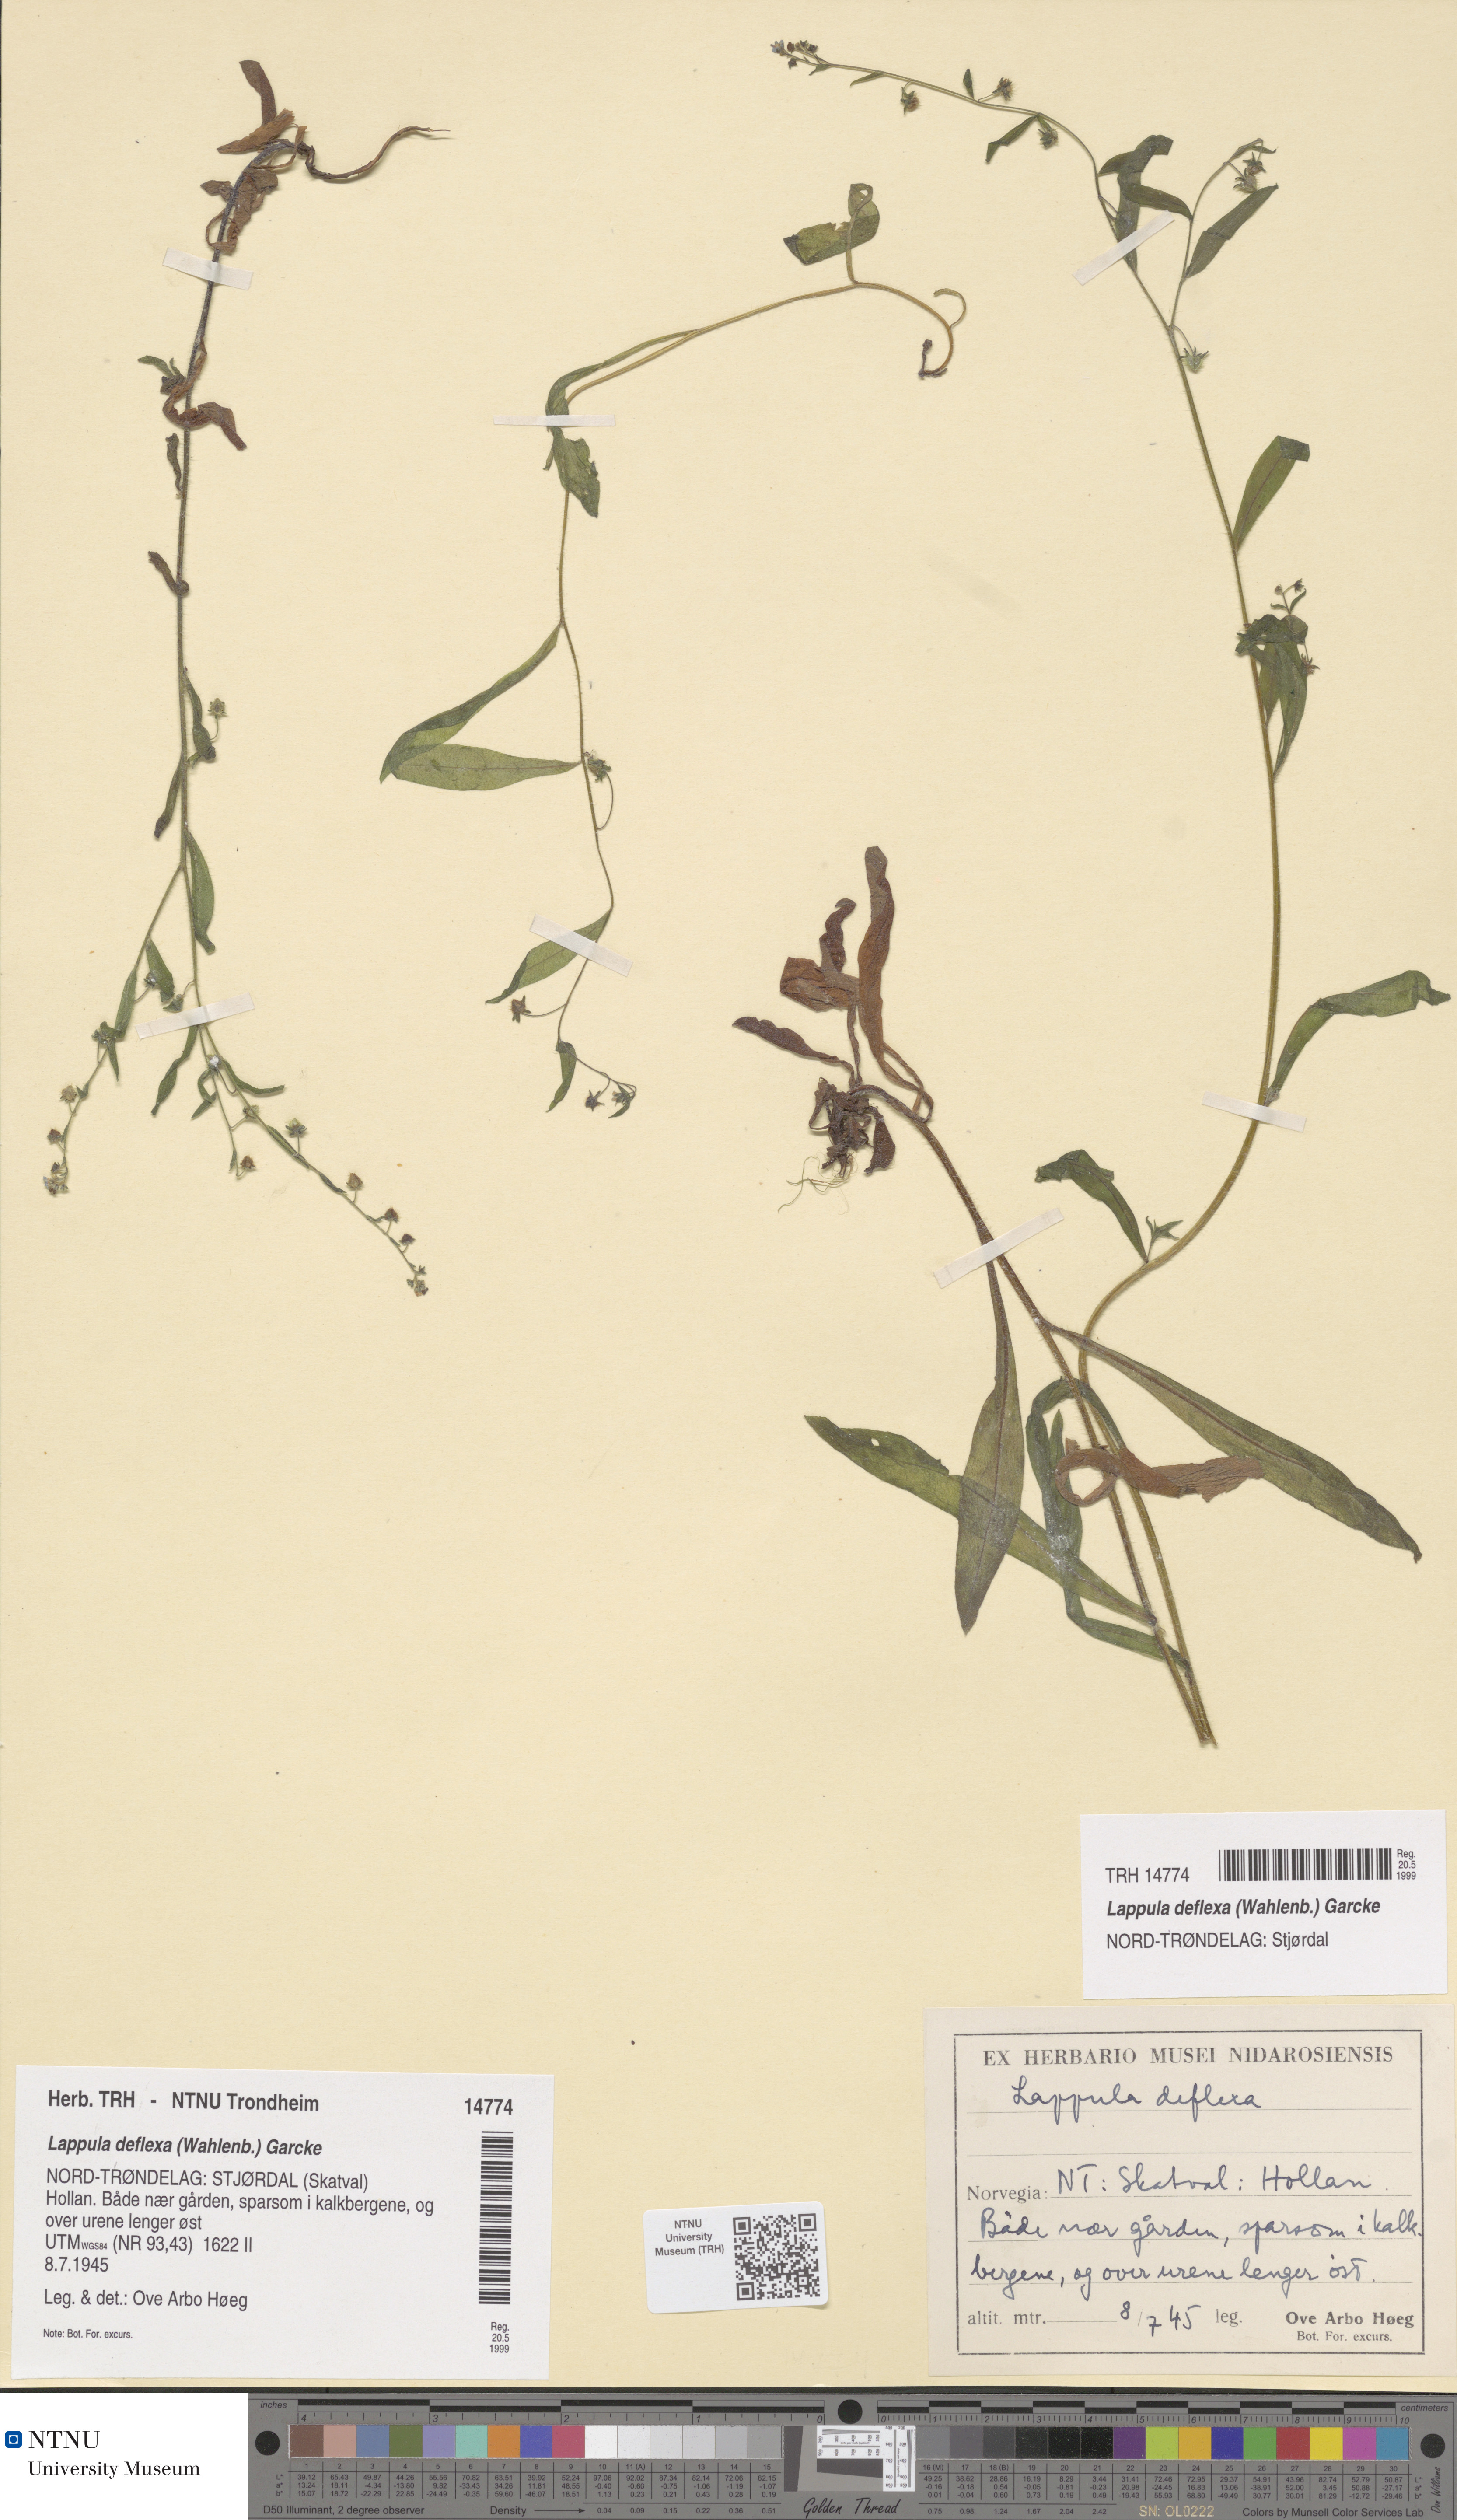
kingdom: Plantae
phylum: Tracheophyta
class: Magnoliopsida
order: Boraginales
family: Boraginaceae
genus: Hackelia
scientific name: Hackelia deflexa
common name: Nodding stickseed
